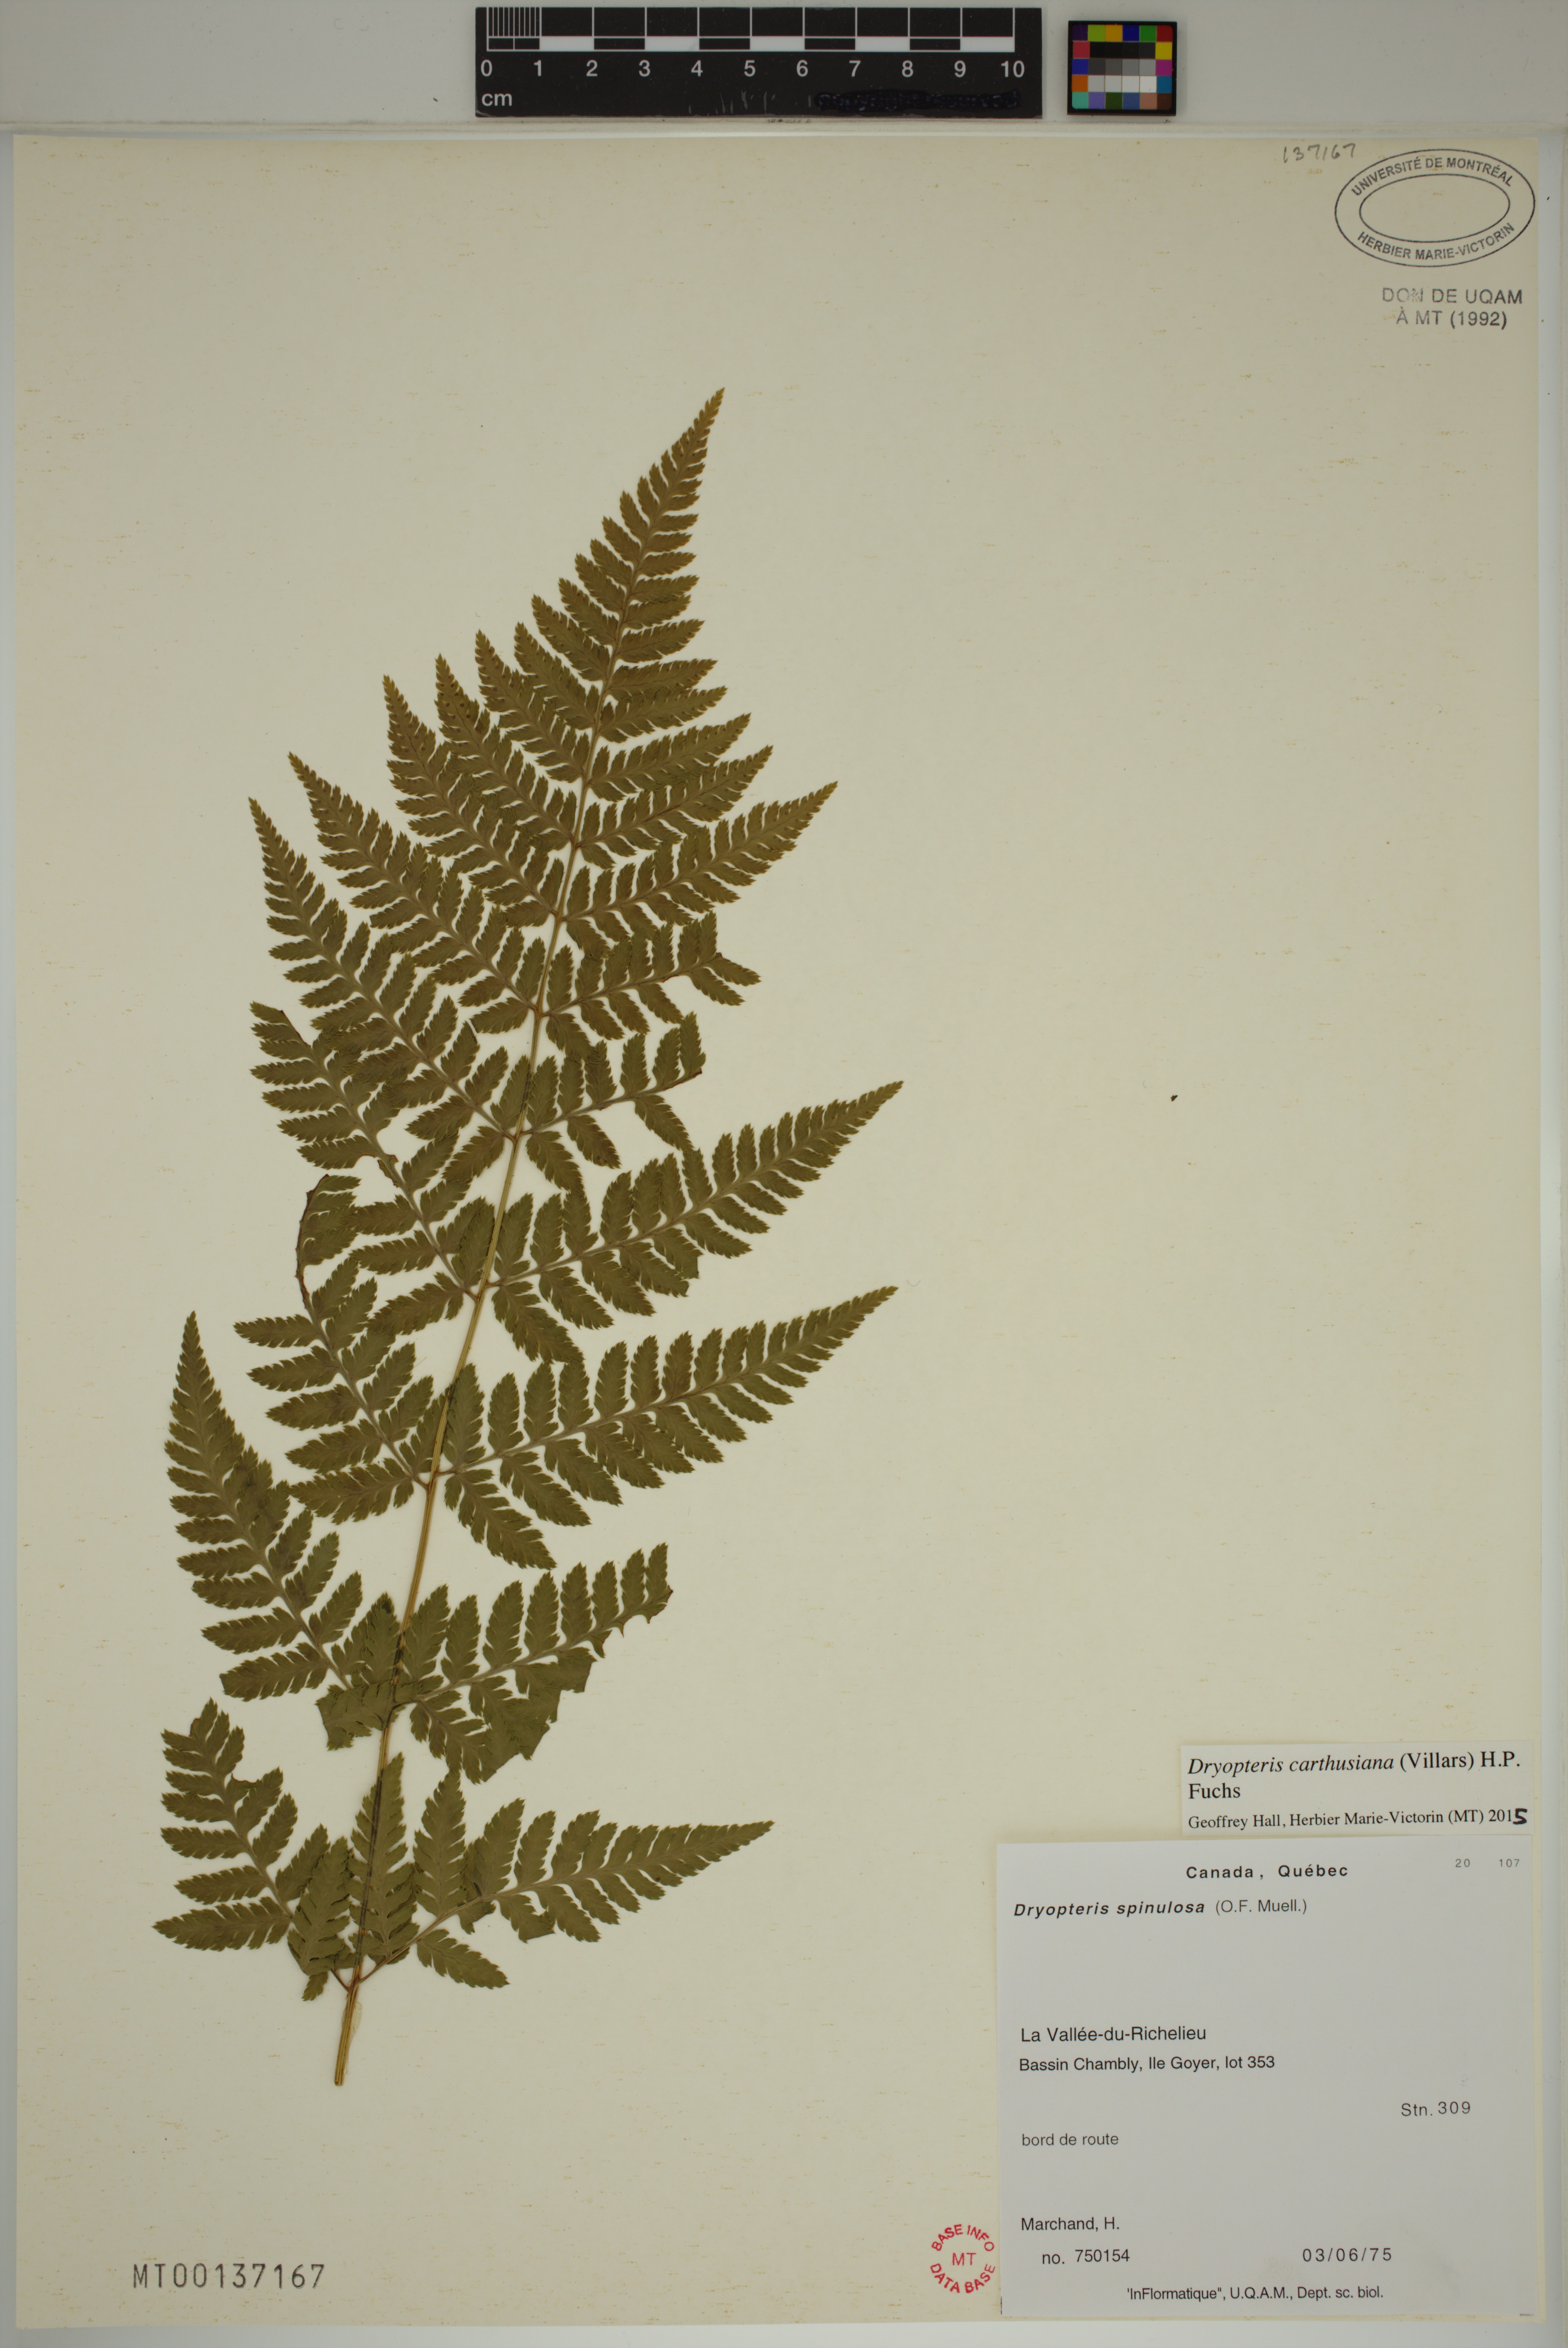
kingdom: Plantae
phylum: Tracheophyta
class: Polypodiopsida
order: Polypodiales
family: Dryopteridaceae
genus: Dryopteris
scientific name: Dryopteris carthusiana
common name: Narrow buckler-fern
